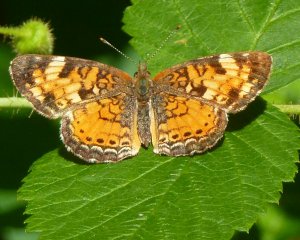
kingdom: Animalia
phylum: Arthropoda
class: Insecta
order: Lepidoptera
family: Nymphalidae
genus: Phyciodes
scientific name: Phyciodes tharos
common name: Northern Crescent
